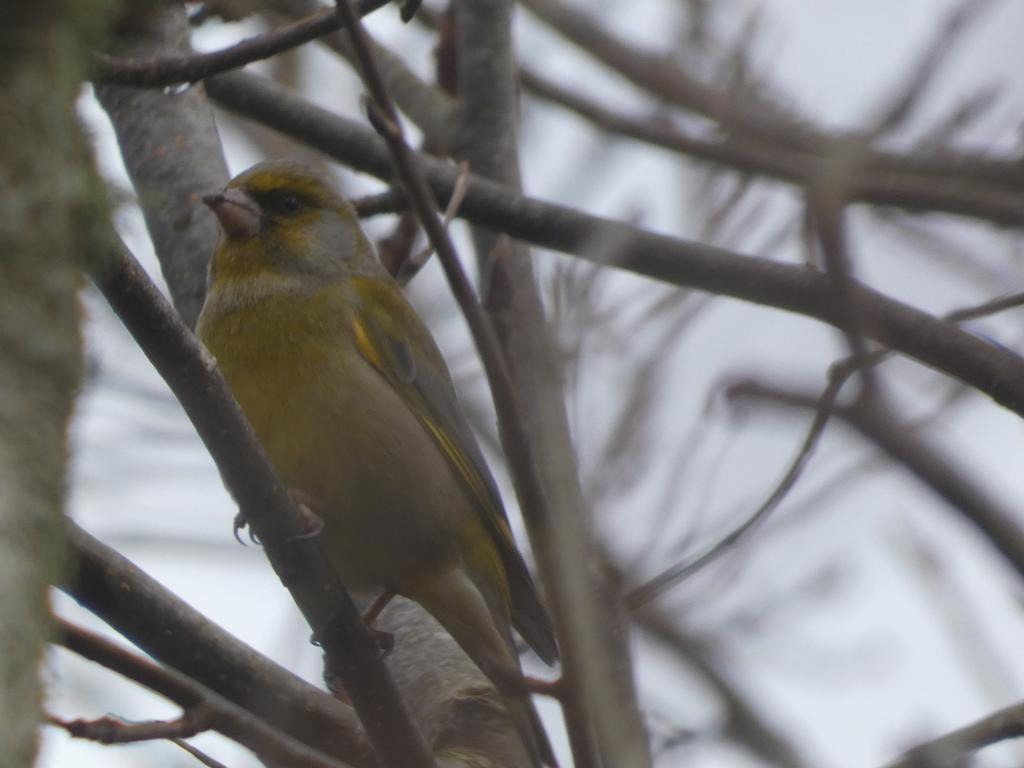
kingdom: Plantae
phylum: Tracheophyta
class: Liliopsida
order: Poales
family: Poaceae
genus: Chloris
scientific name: Chloris chloris
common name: Grønirisk
